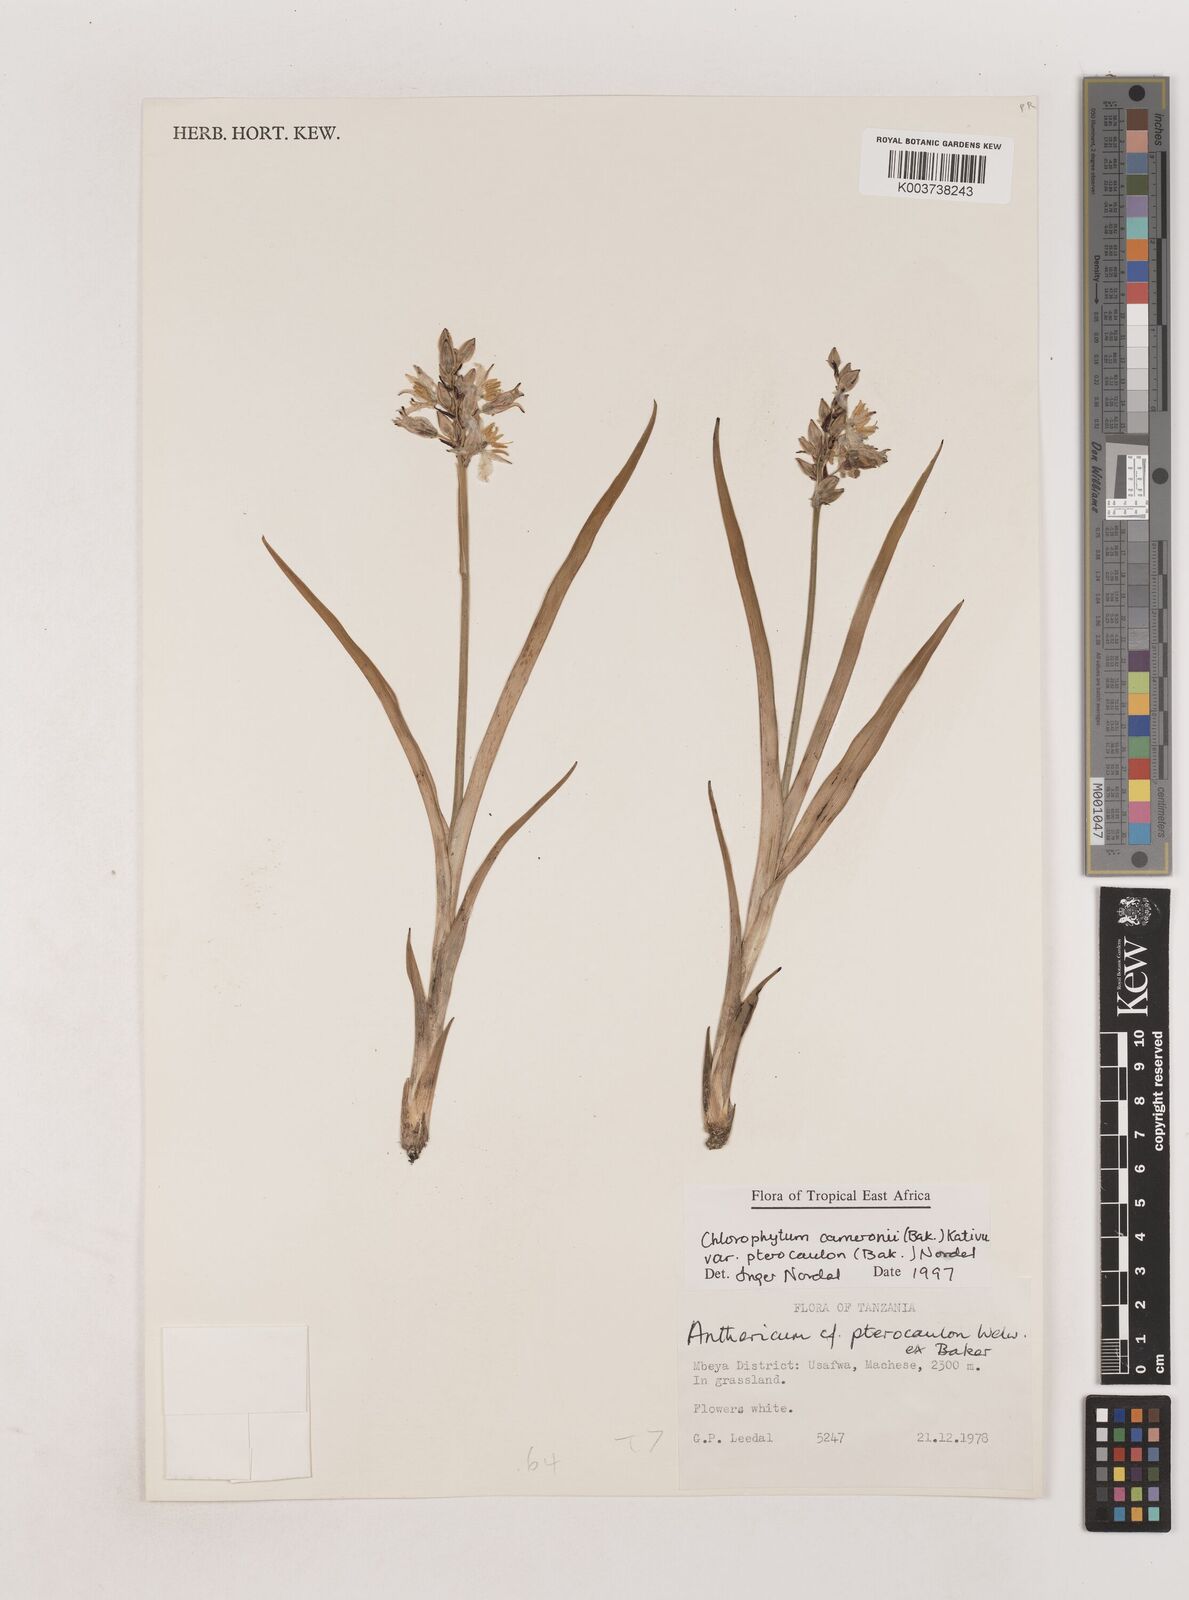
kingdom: Plantae
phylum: Tracheophyta
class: Liliopsida
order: Asparagales
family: Asparagaceae
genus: Chlorophytum
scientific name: Chlorophytum cameronii
